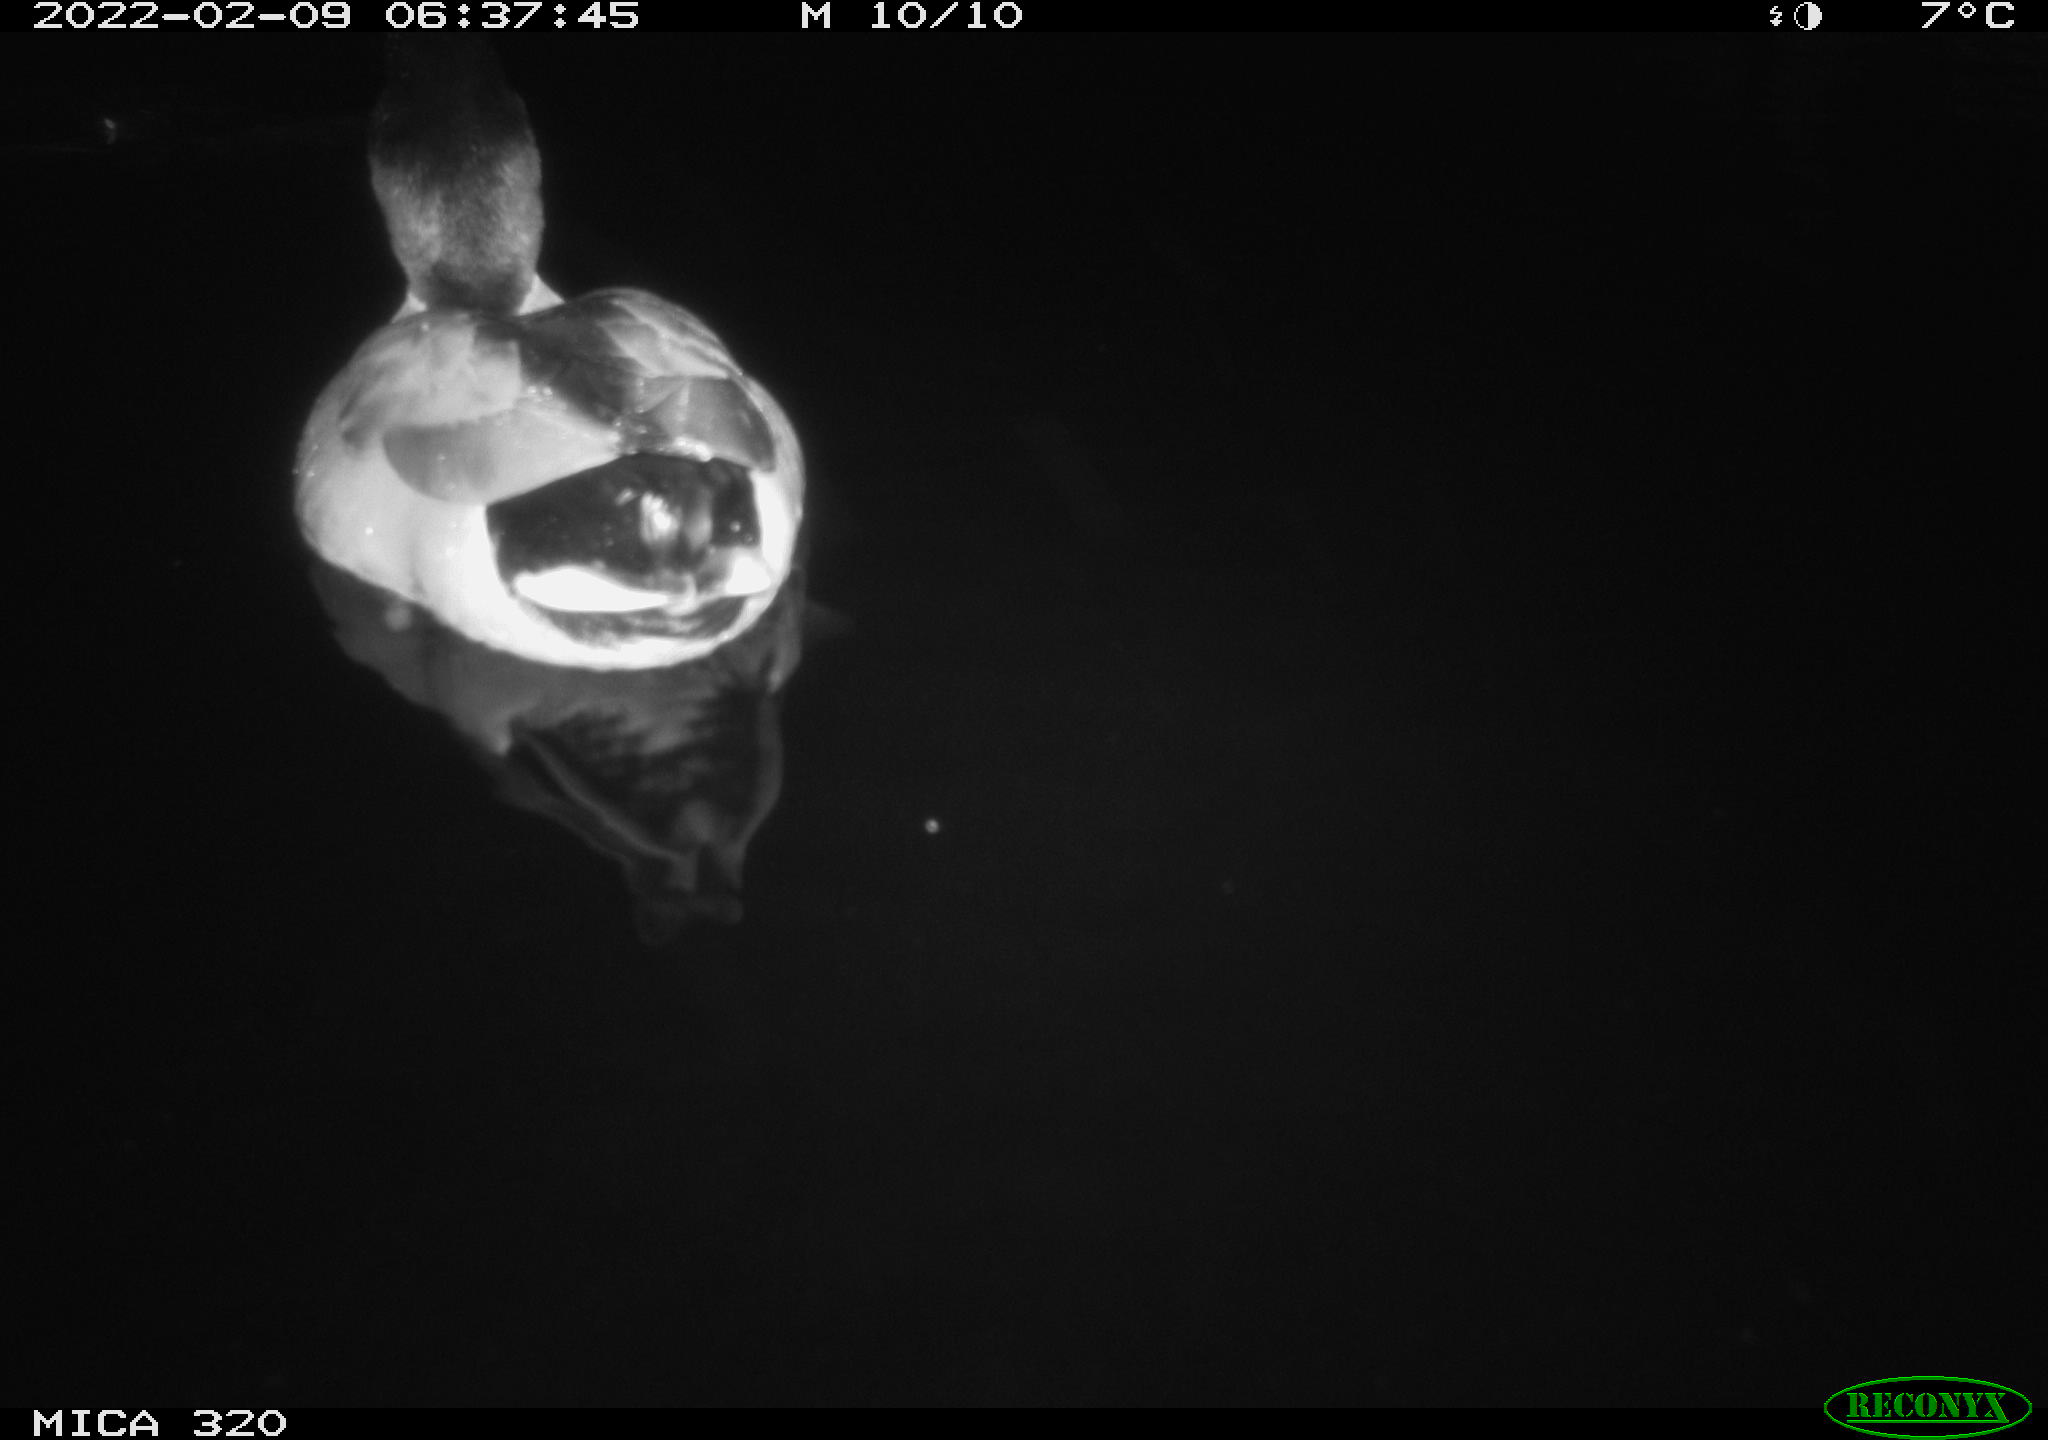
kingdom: Animalia
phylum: Chordata
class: Aves
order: Anseriformes
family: Anatidae
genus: Anas
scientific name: Anas platyrhynchos
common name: Mallard
